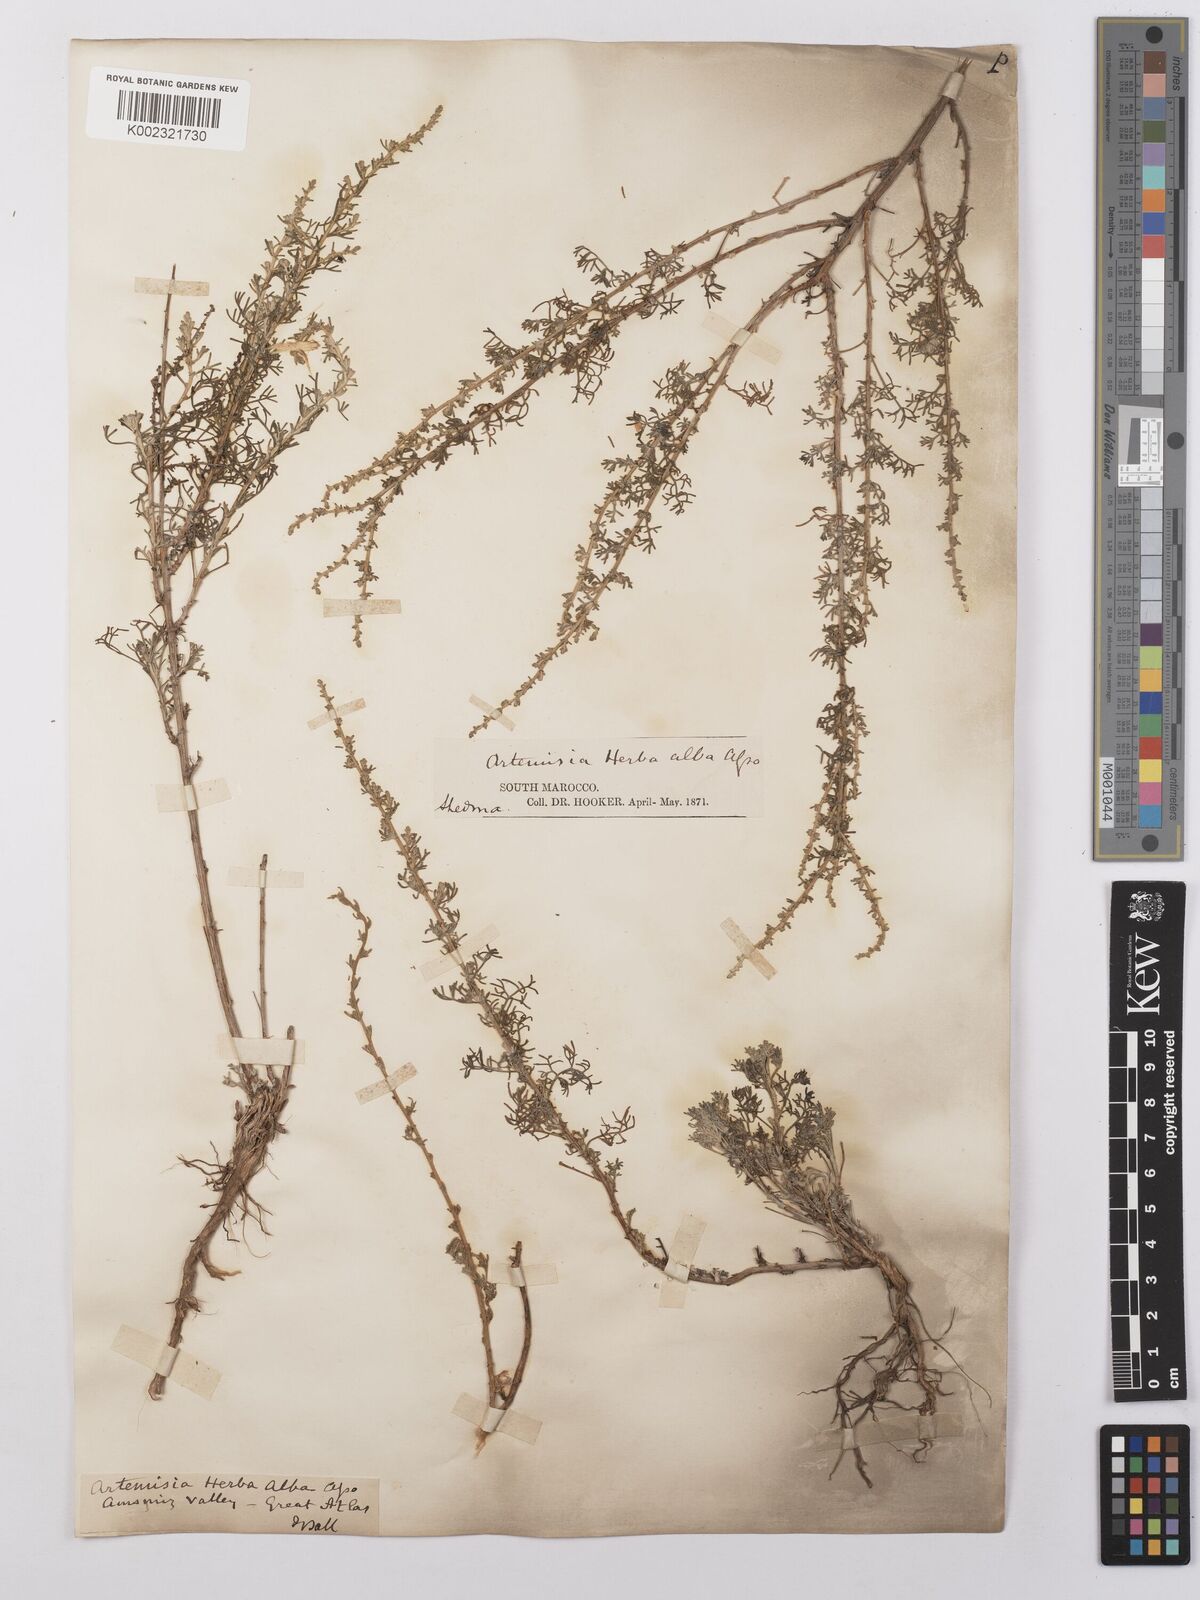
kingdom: Plantae
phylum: Tracheophyta
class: Magnoliopsida
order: Asterales
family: Asteraceae
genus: Artemisia
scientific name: Artemisia herba-alba
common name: White wormwood
